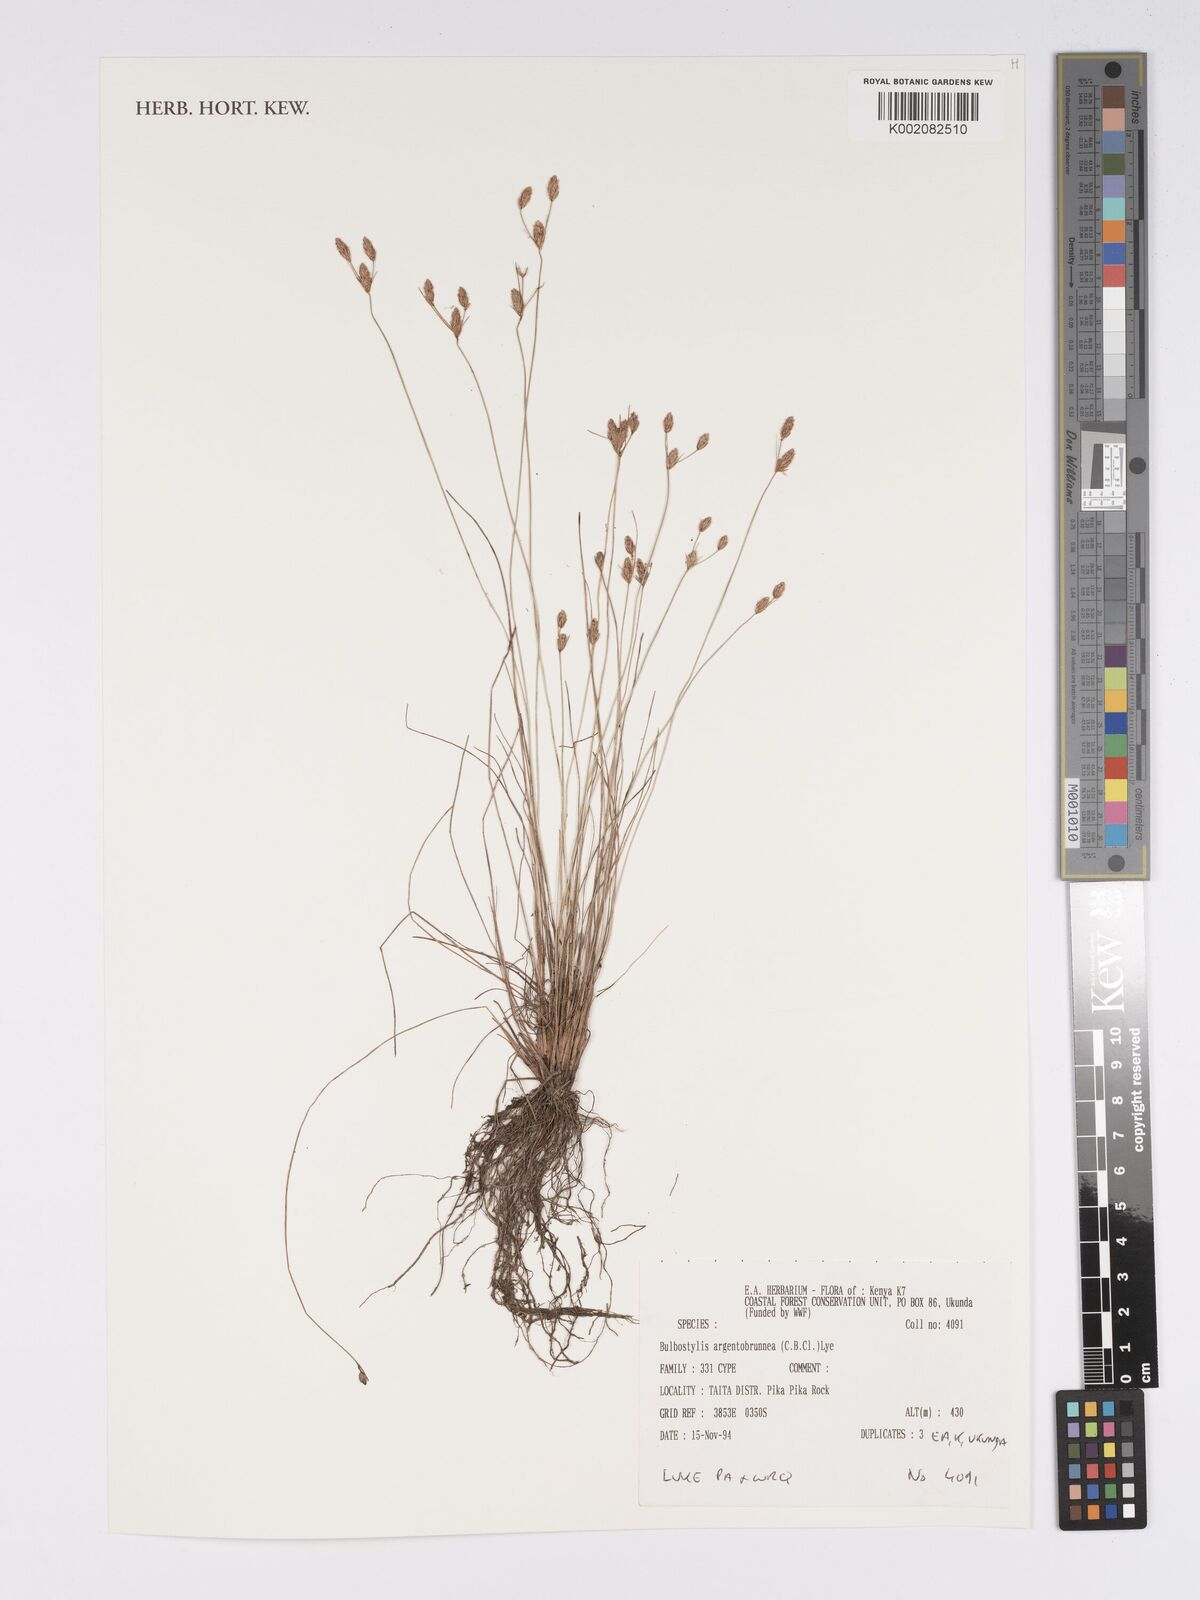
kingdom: Plantae
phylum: Tracheophyta
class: Liliopsida
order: Poales
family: Cyperaceae
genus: Bulbostylis
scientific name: Bulbostylis argenteobrunea
